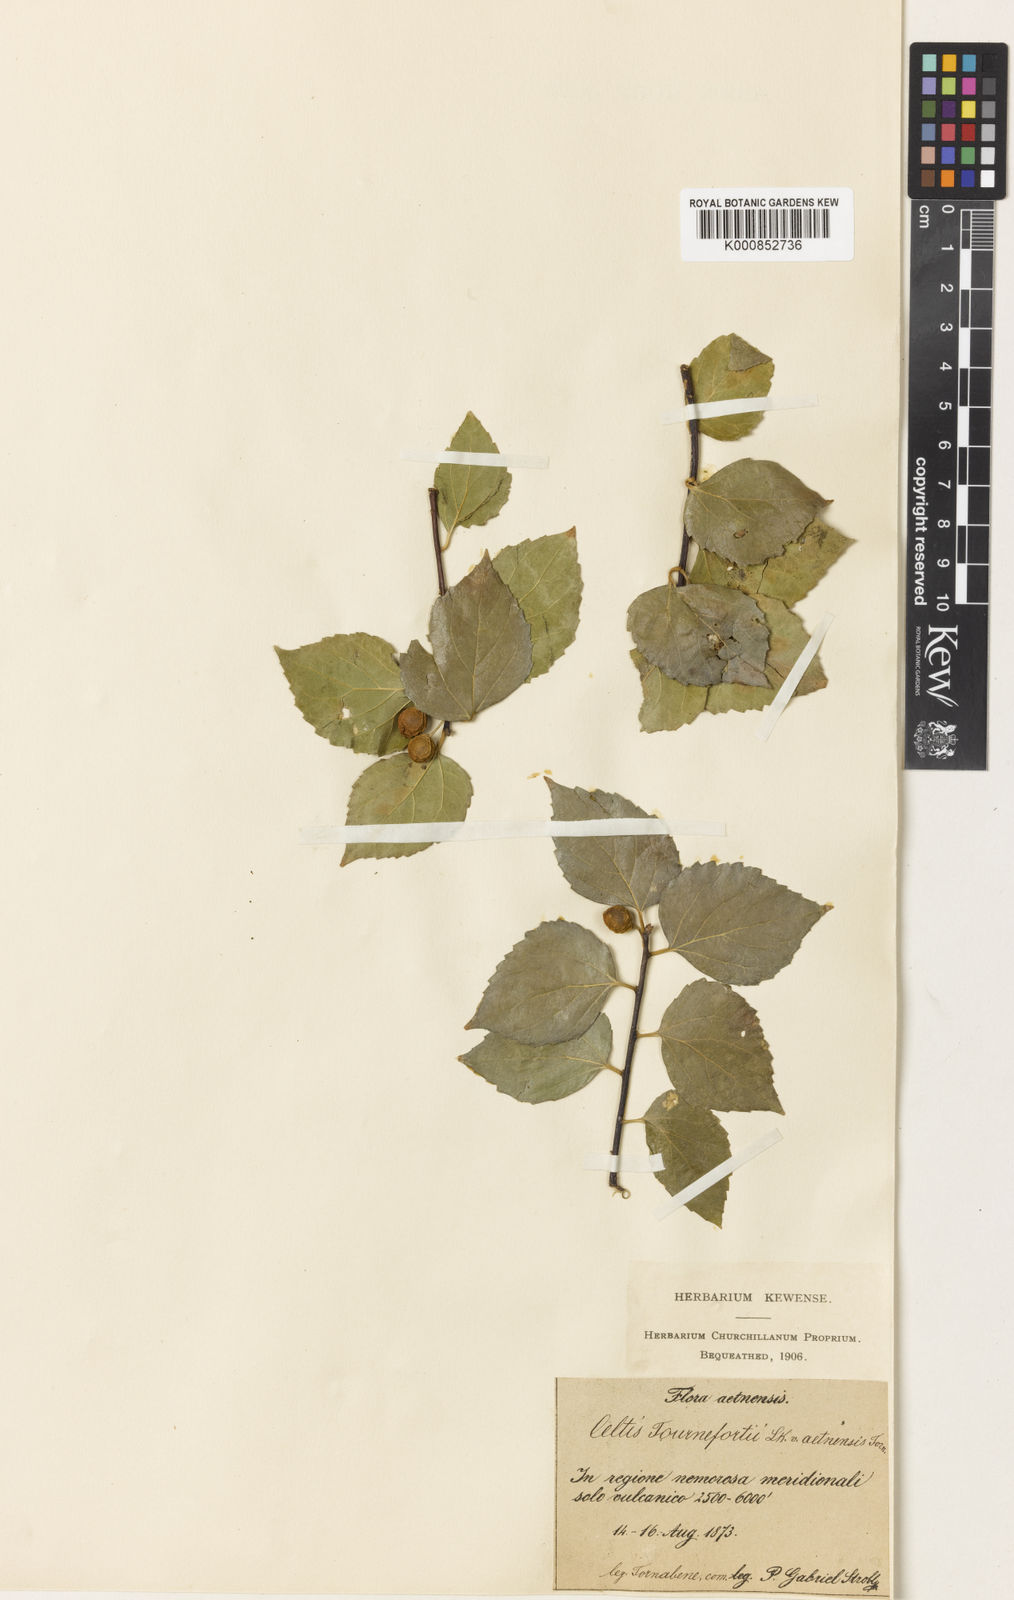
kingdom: Plantae
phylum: Tracheophyta
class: Magnoliopsida
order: Rosales
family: Cannabaceae
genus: Celtis
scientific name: Celtis tournefortii
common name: Oriental hackberry
